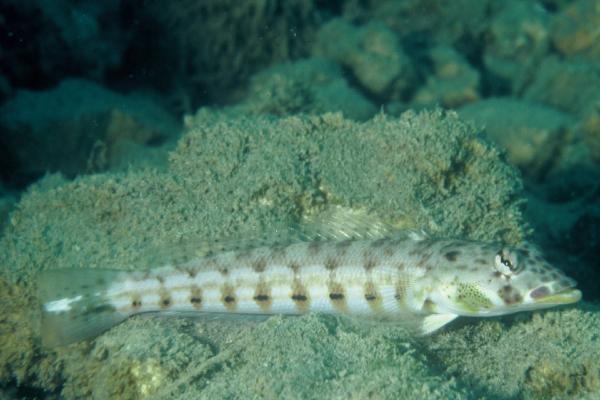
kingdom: Animalia
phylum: Chordata
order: Perciformes
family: Pinguipedidae
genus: Parapercis
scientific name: Parapercis millepunctata
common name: Black-dotted sandperch
